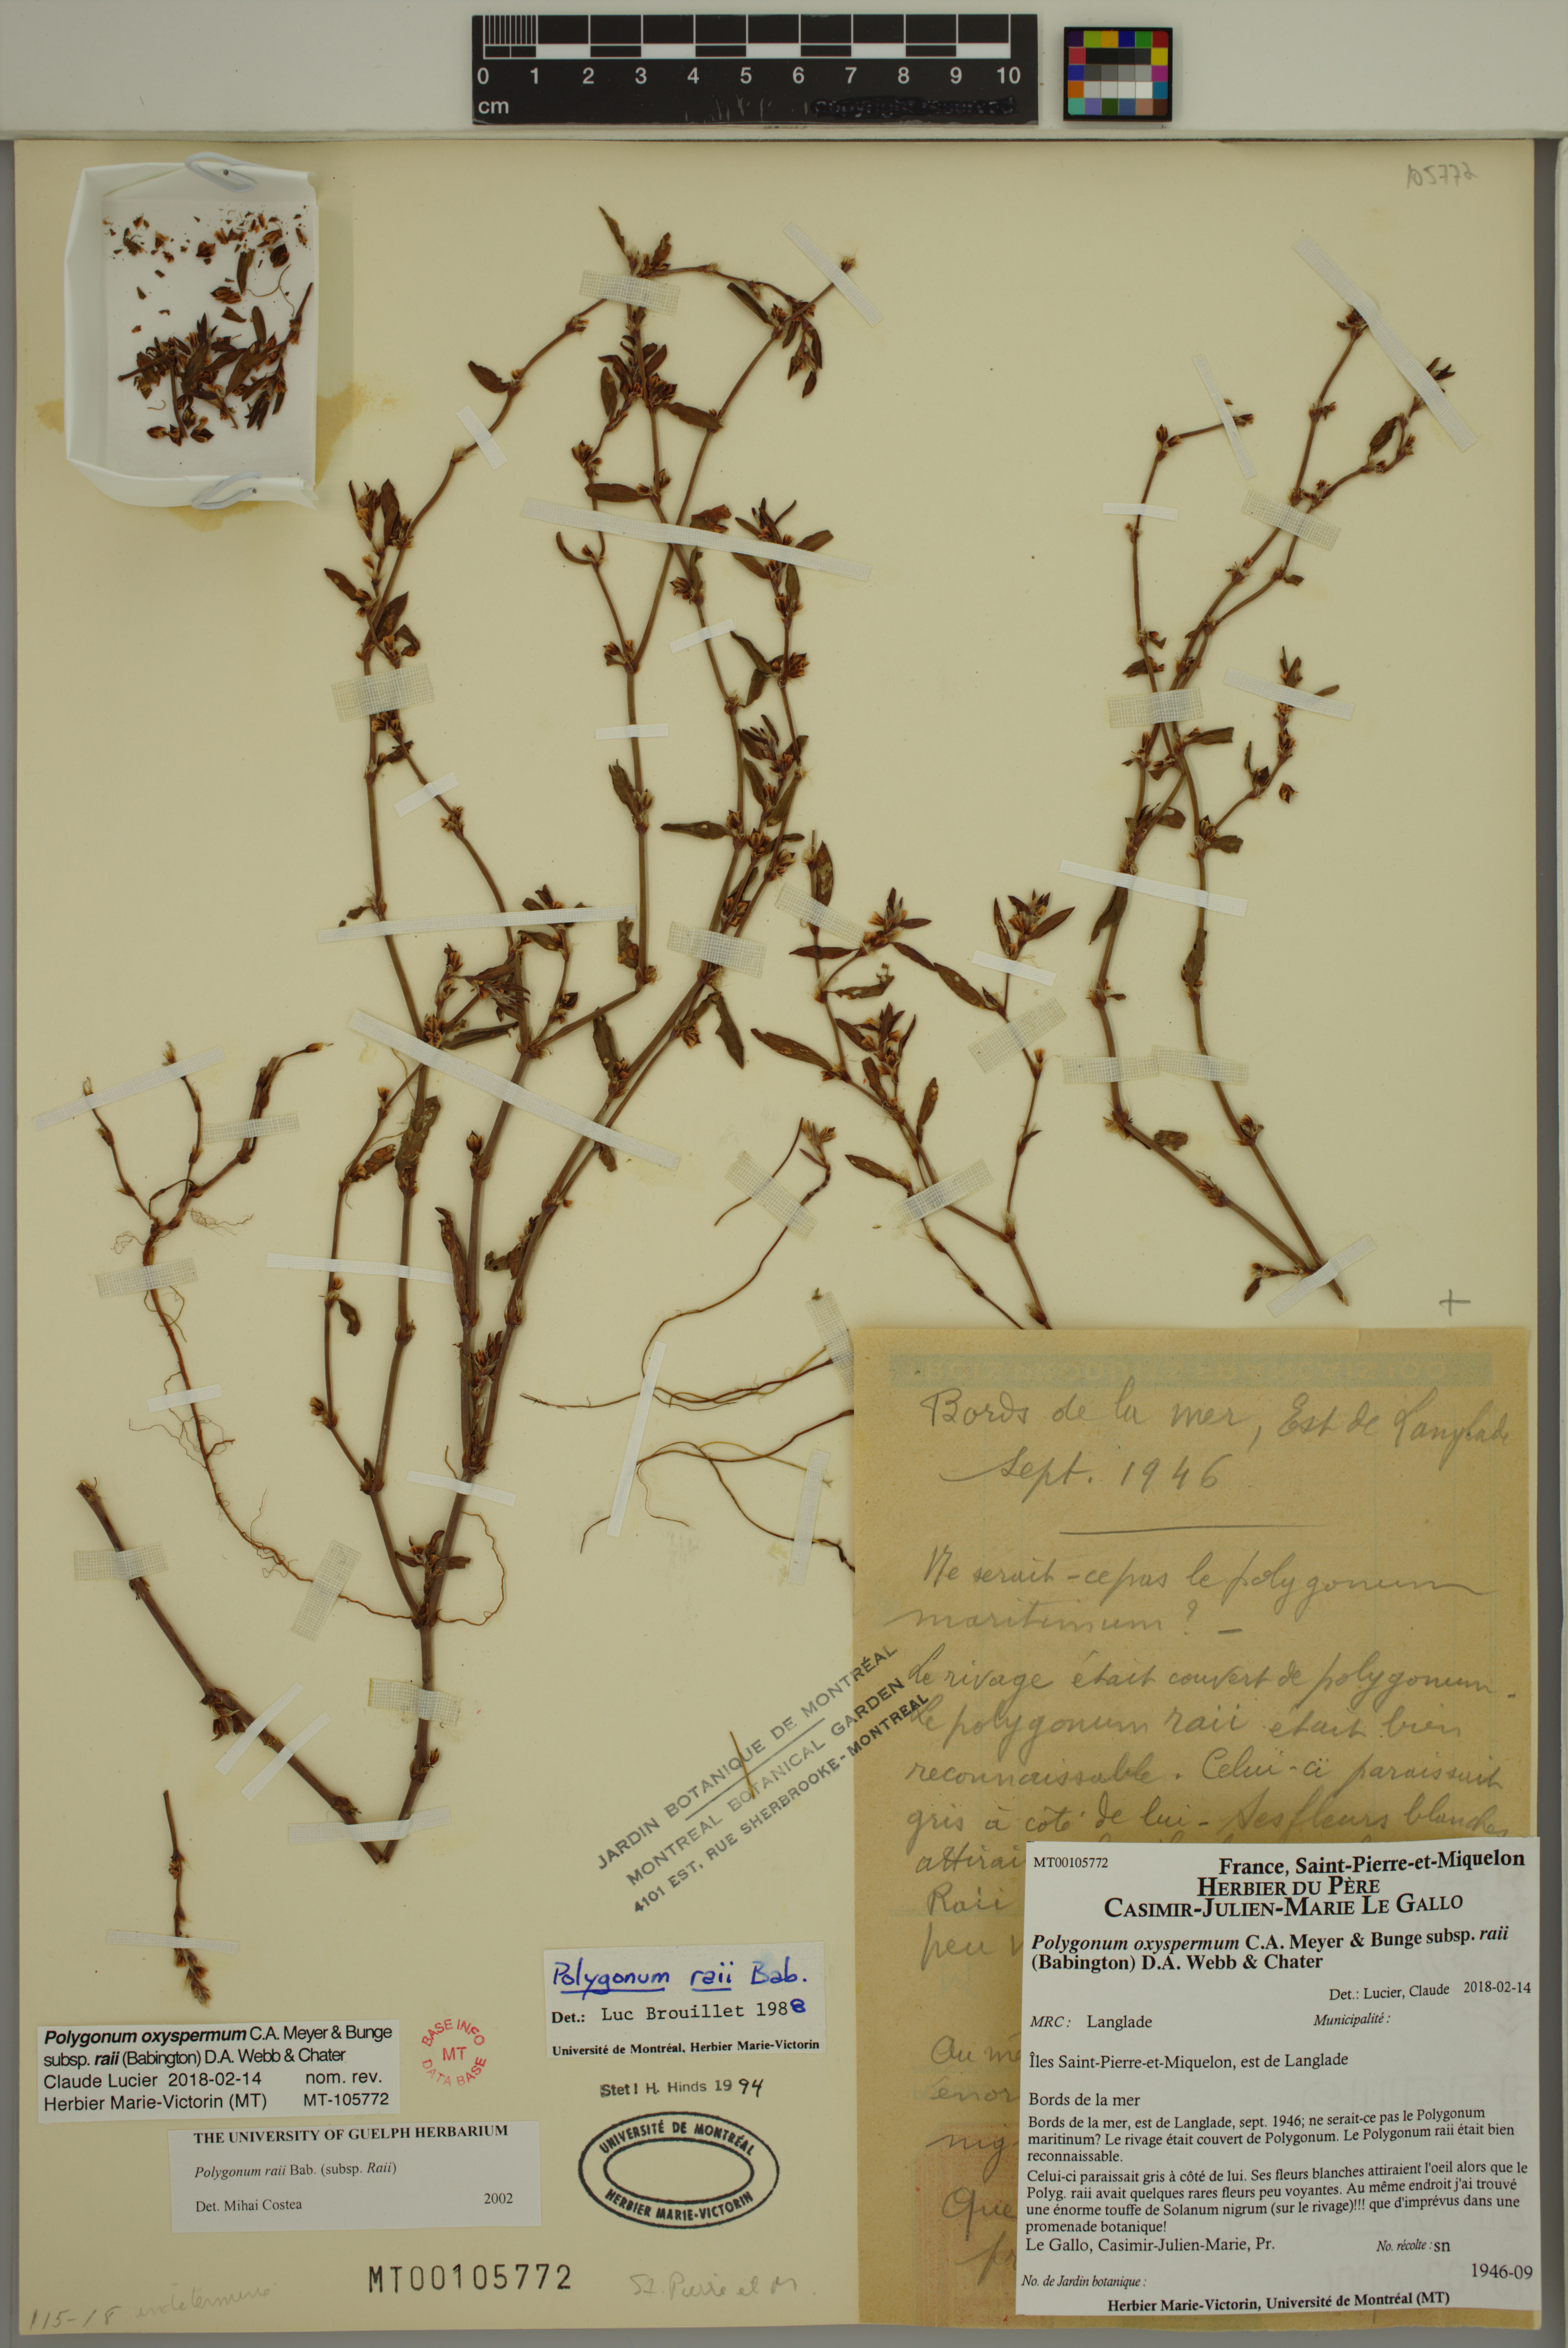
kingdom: Plantae
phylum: Tracheophyta
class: Magnoliopsida
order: Caryophyllales
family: Polygonaceae
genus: Polygonum
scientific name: Polygonum raii
